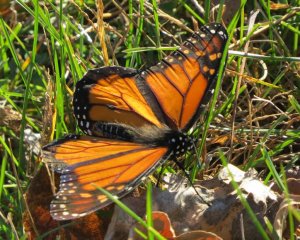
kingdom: Animalia
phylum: Arthropoda
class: Insecta
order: Lepidoptera
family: Nymphalidae
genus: Danaus
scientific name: Danaus plexippus
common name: Monarch
